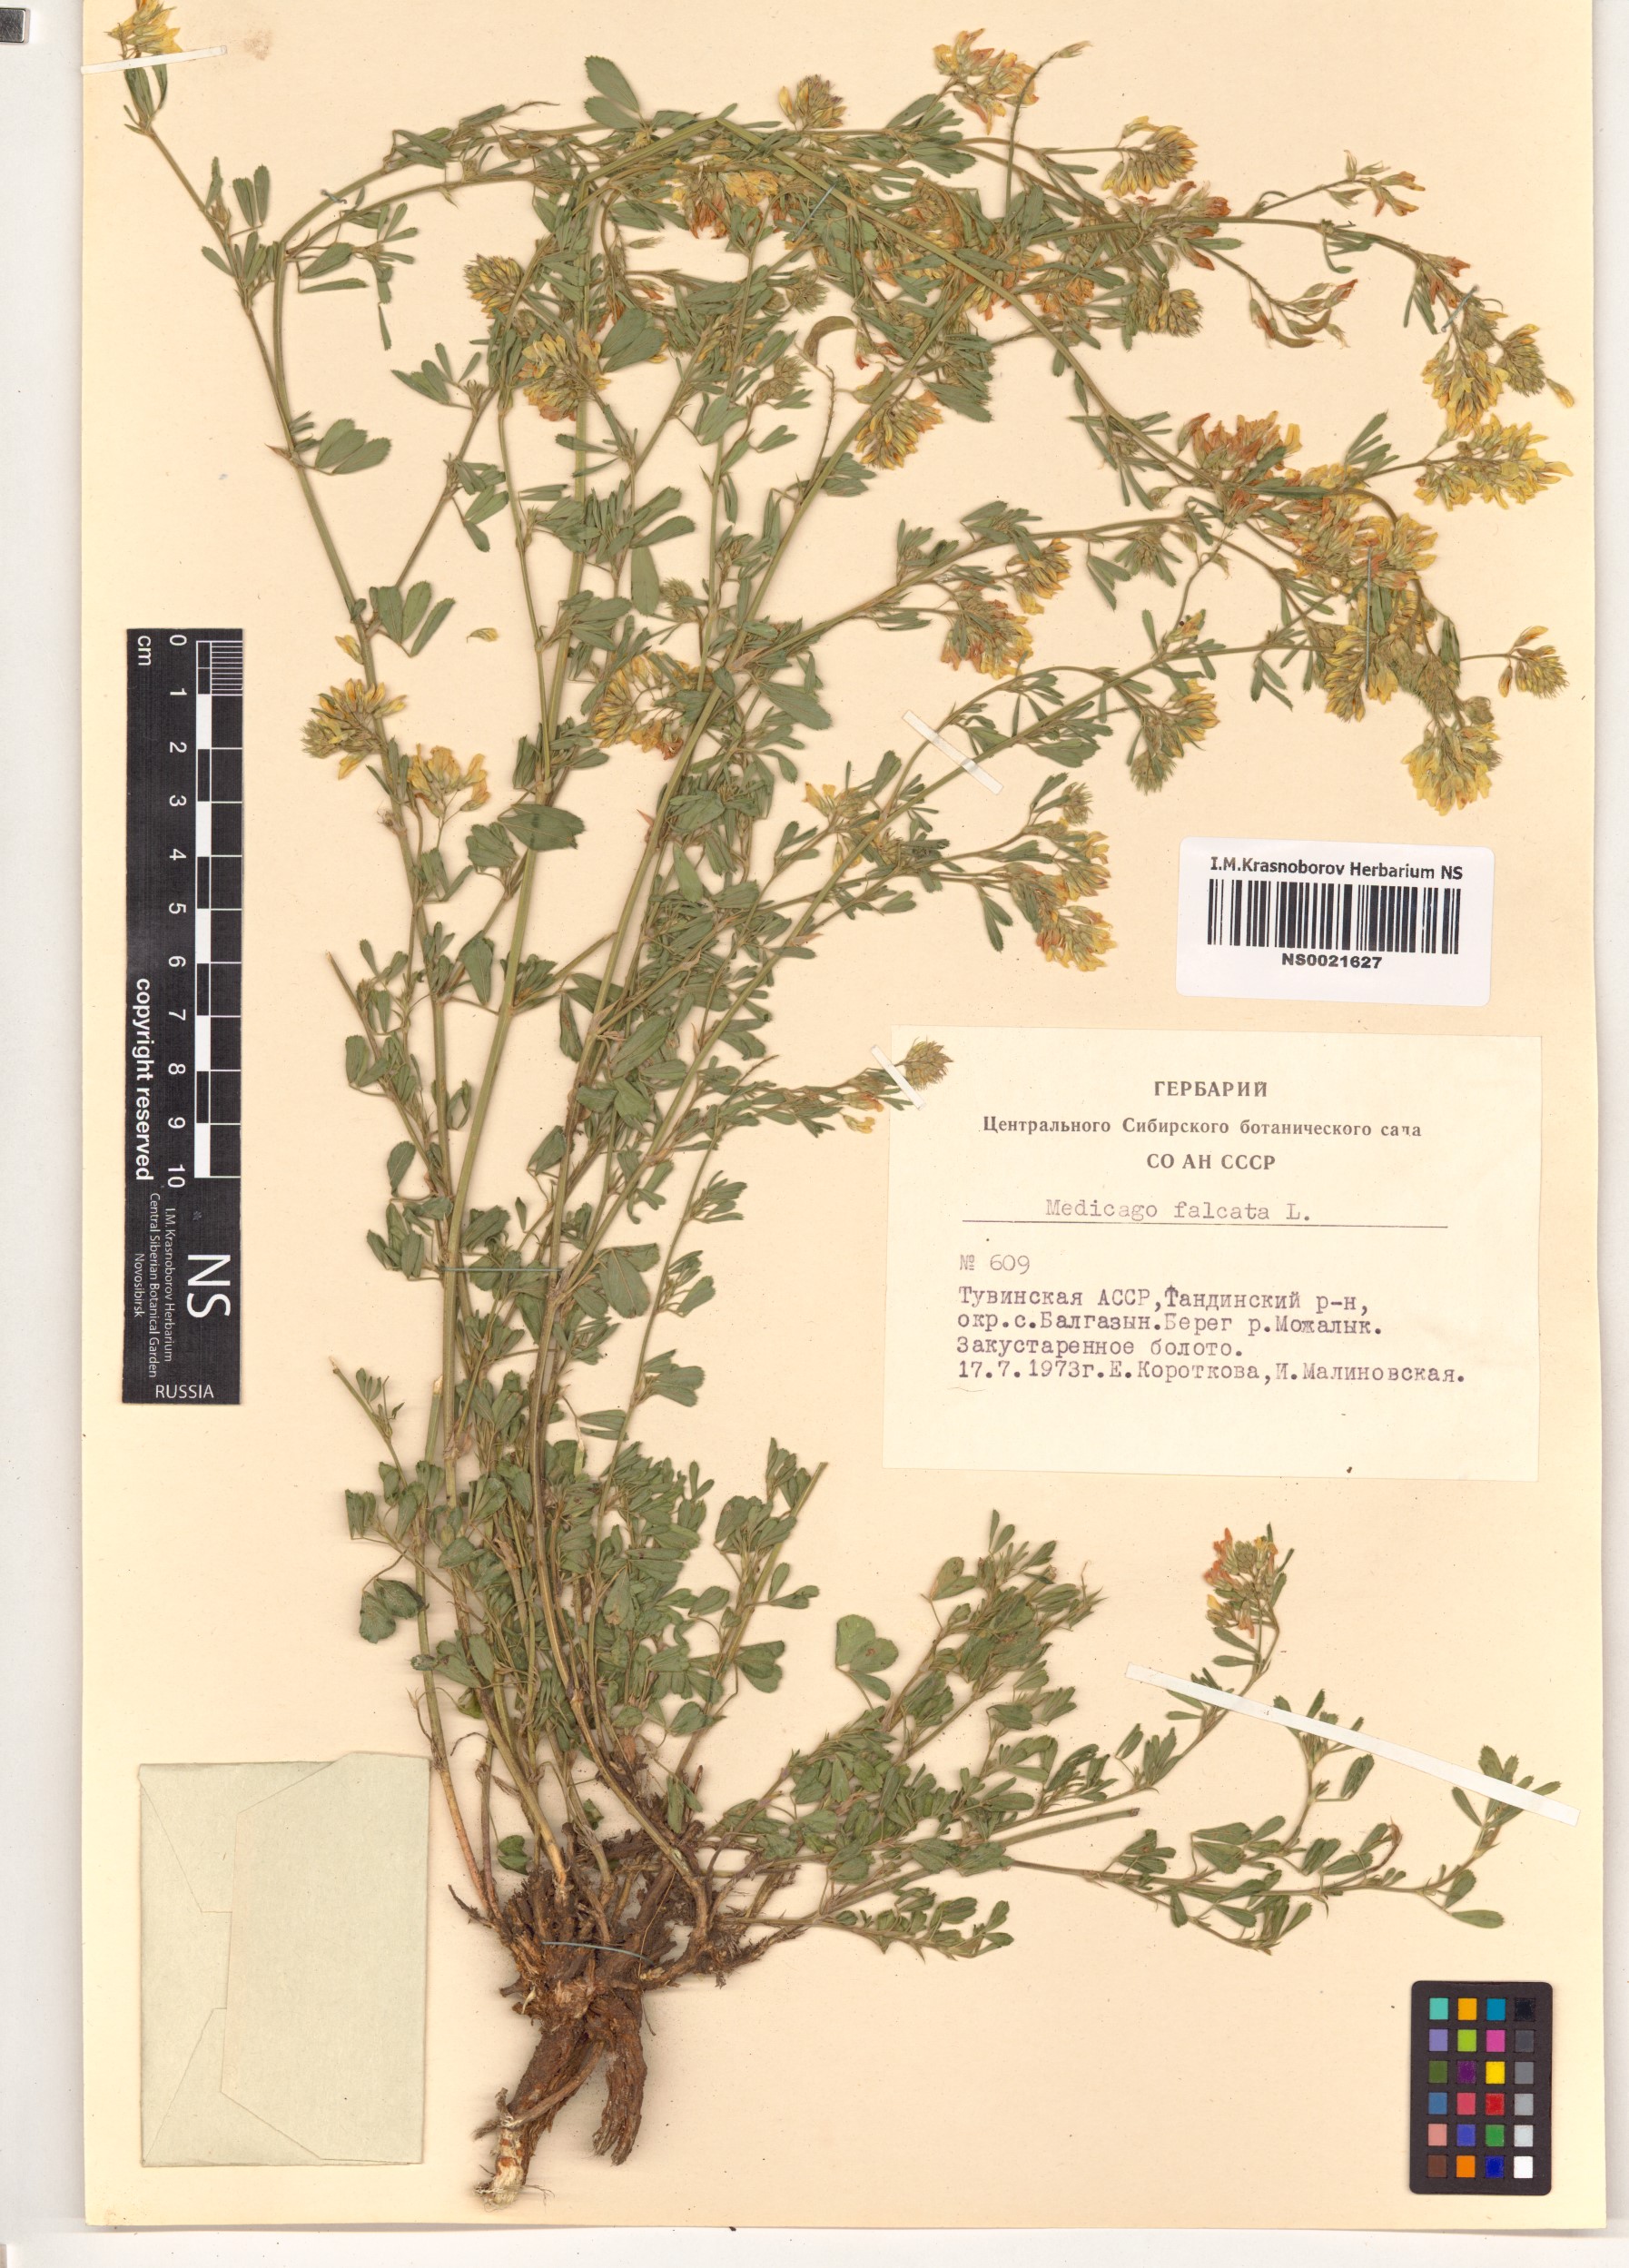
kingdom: Plantae
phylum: Tracheophyta
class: Magnoliopsida
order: Fabales
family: Fabaceae
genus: Medicago
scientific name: Medicago falcata
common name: Sickle medick
